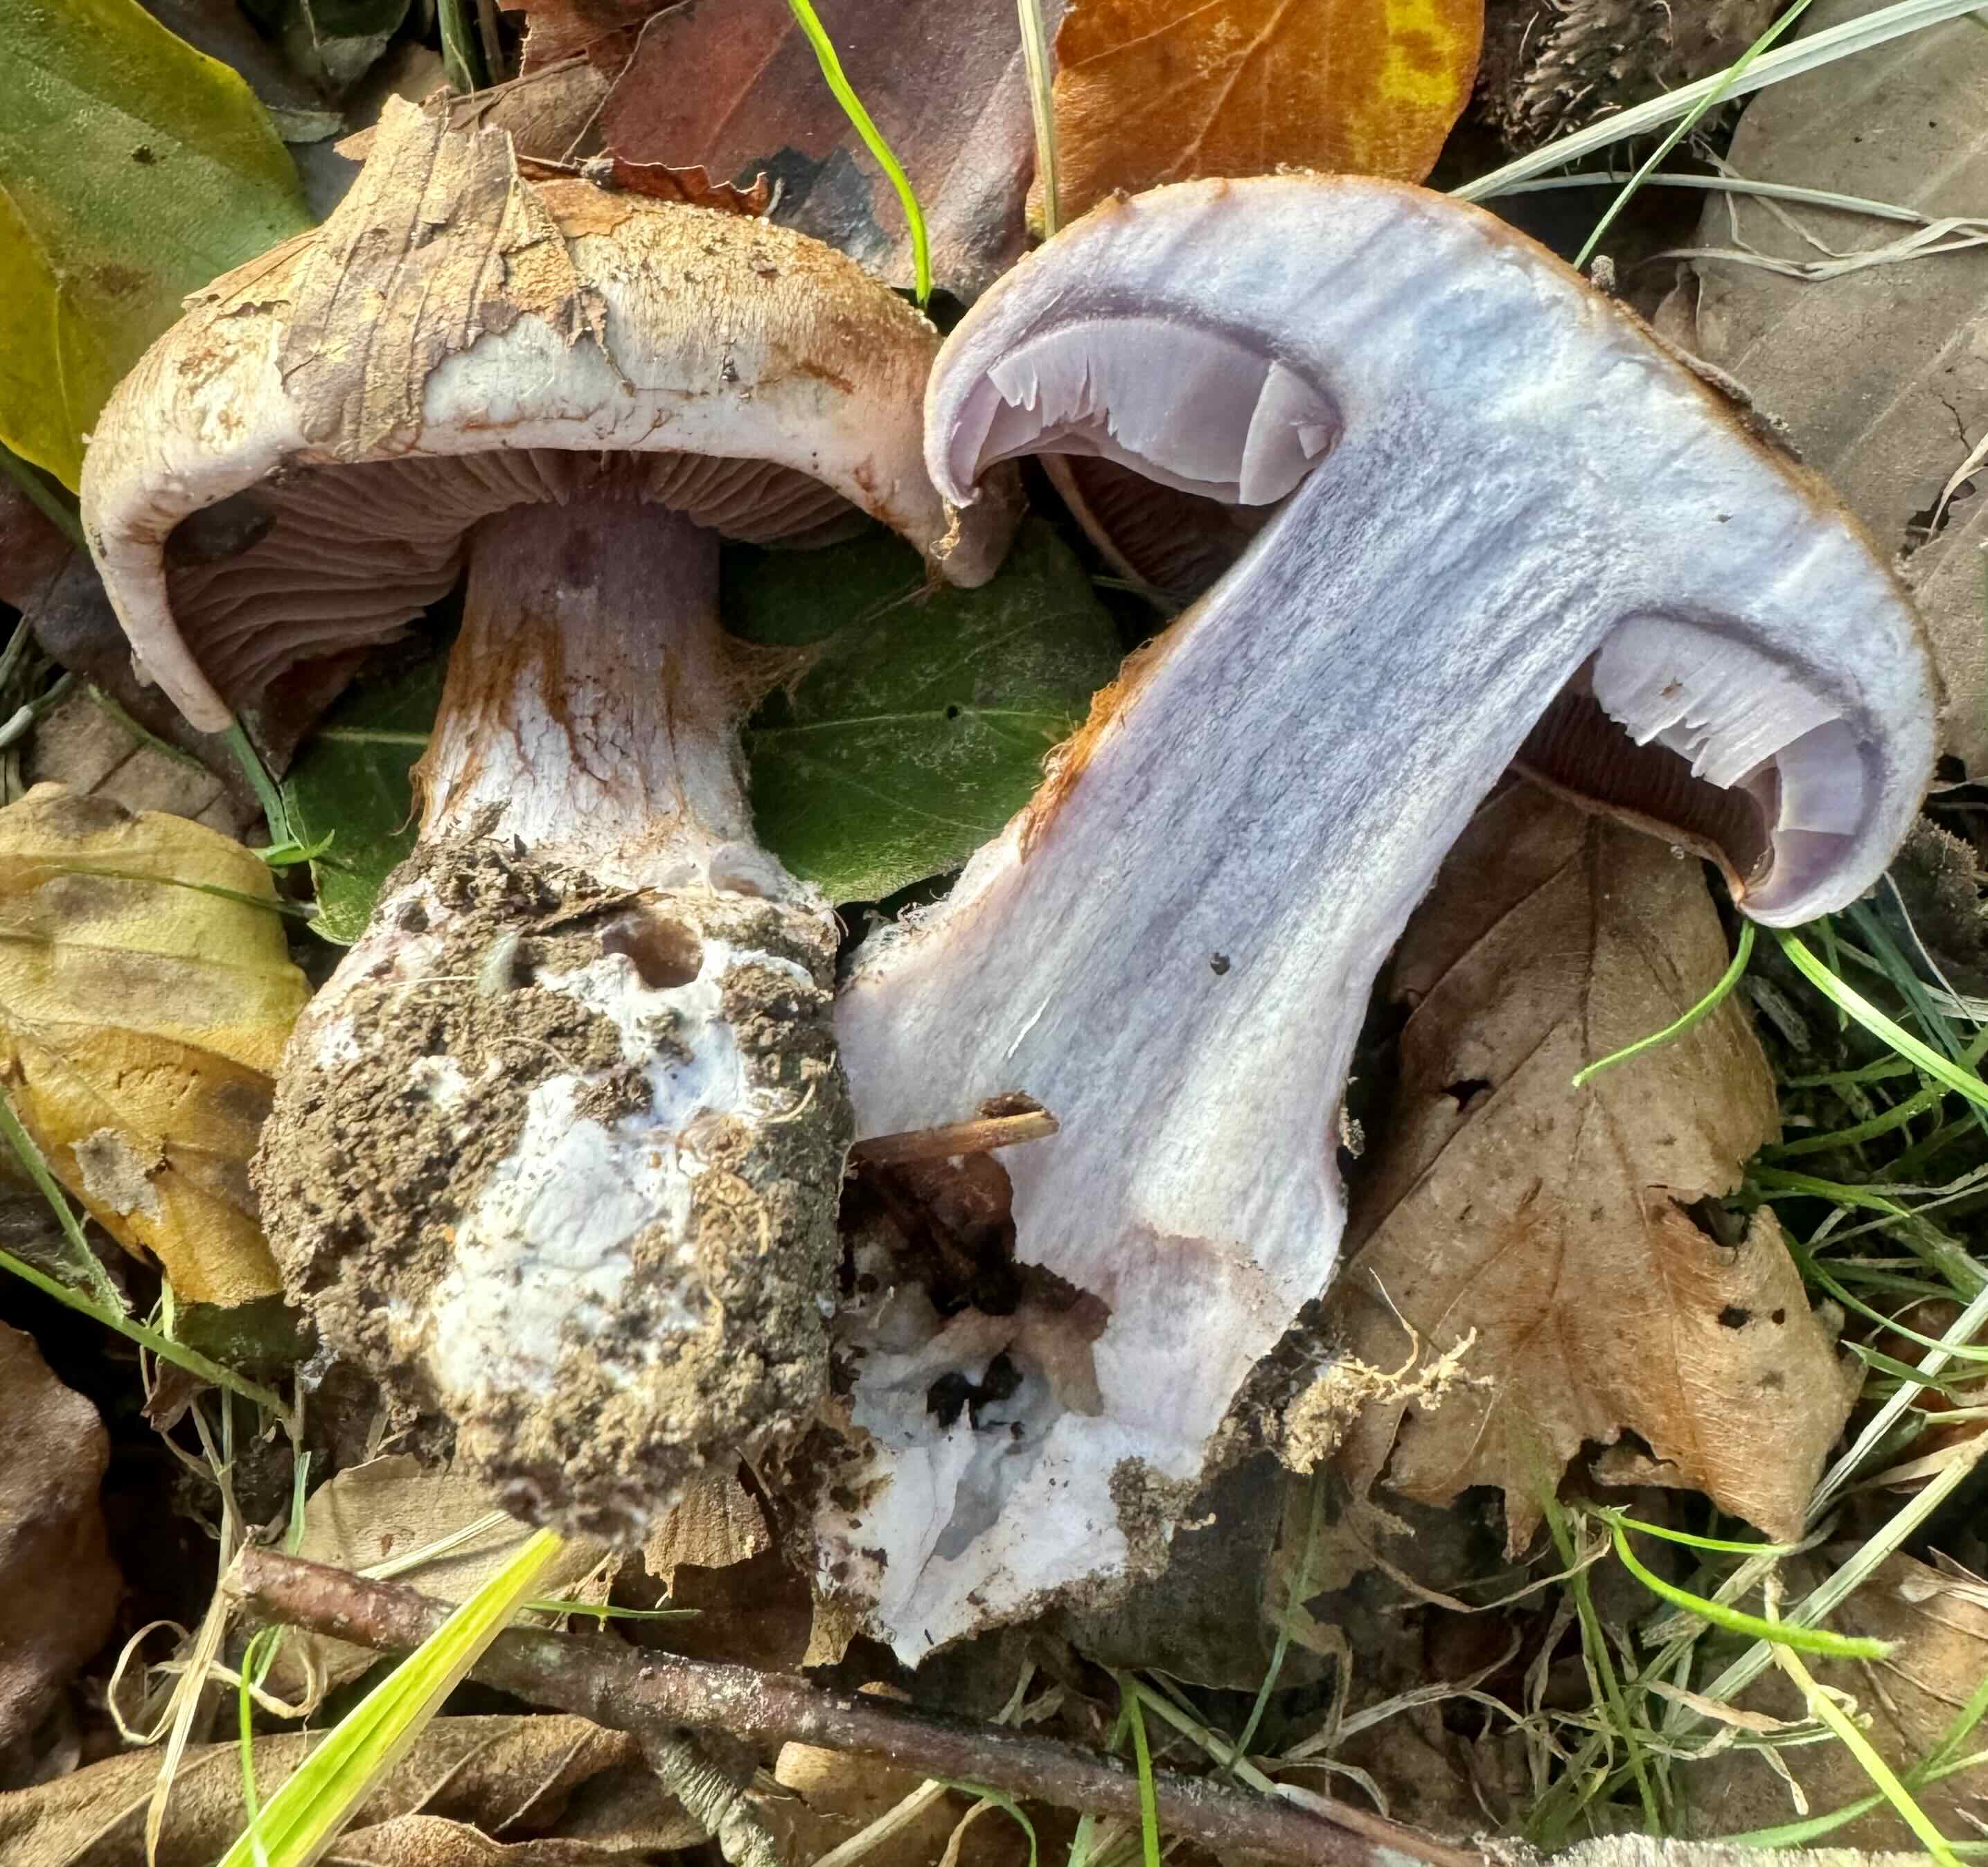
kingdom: Fungi
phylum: Basidiomycota
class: Agaricomycetes
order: Agaricales
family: Cortinariaceae
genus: Phlegmacium
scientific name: Phlegmacium
